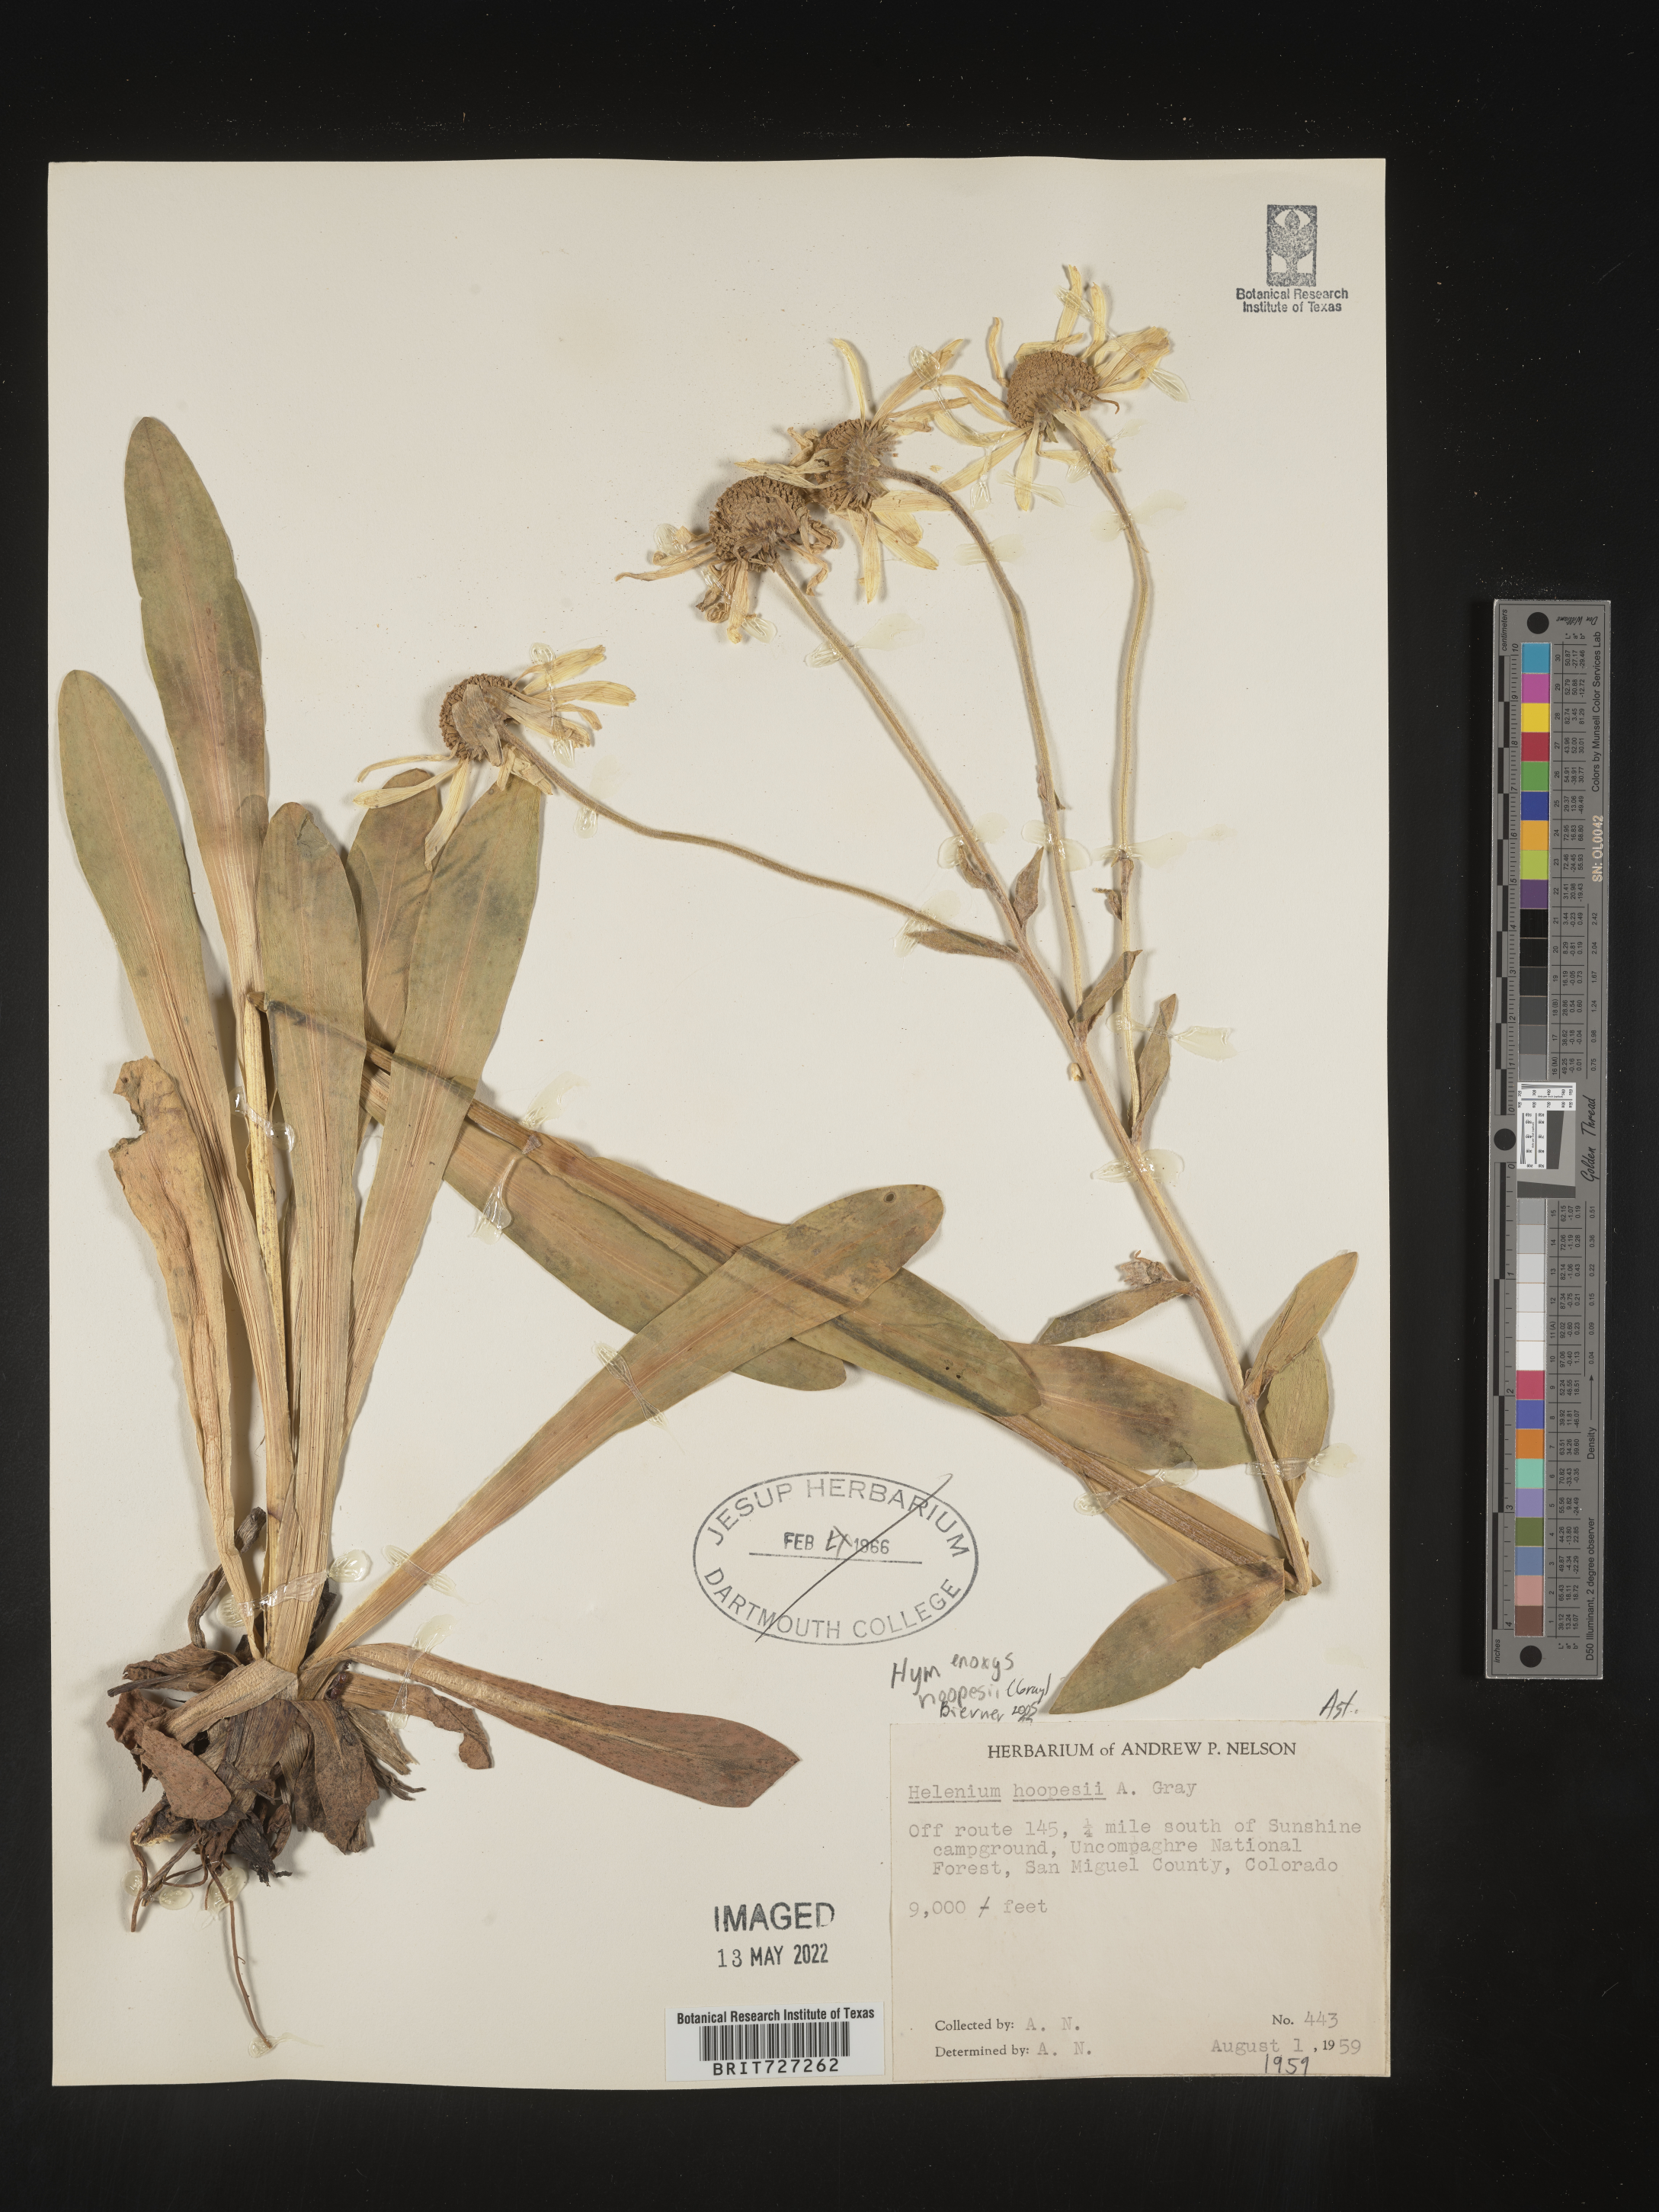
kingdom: Plantae
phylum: Tracheophyta
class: Magnoliopsida
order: Asterales
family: Asteraceae
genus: Hymenoxys
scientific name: Hymenoxys hoopesii
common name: Orange-sneezeweed
